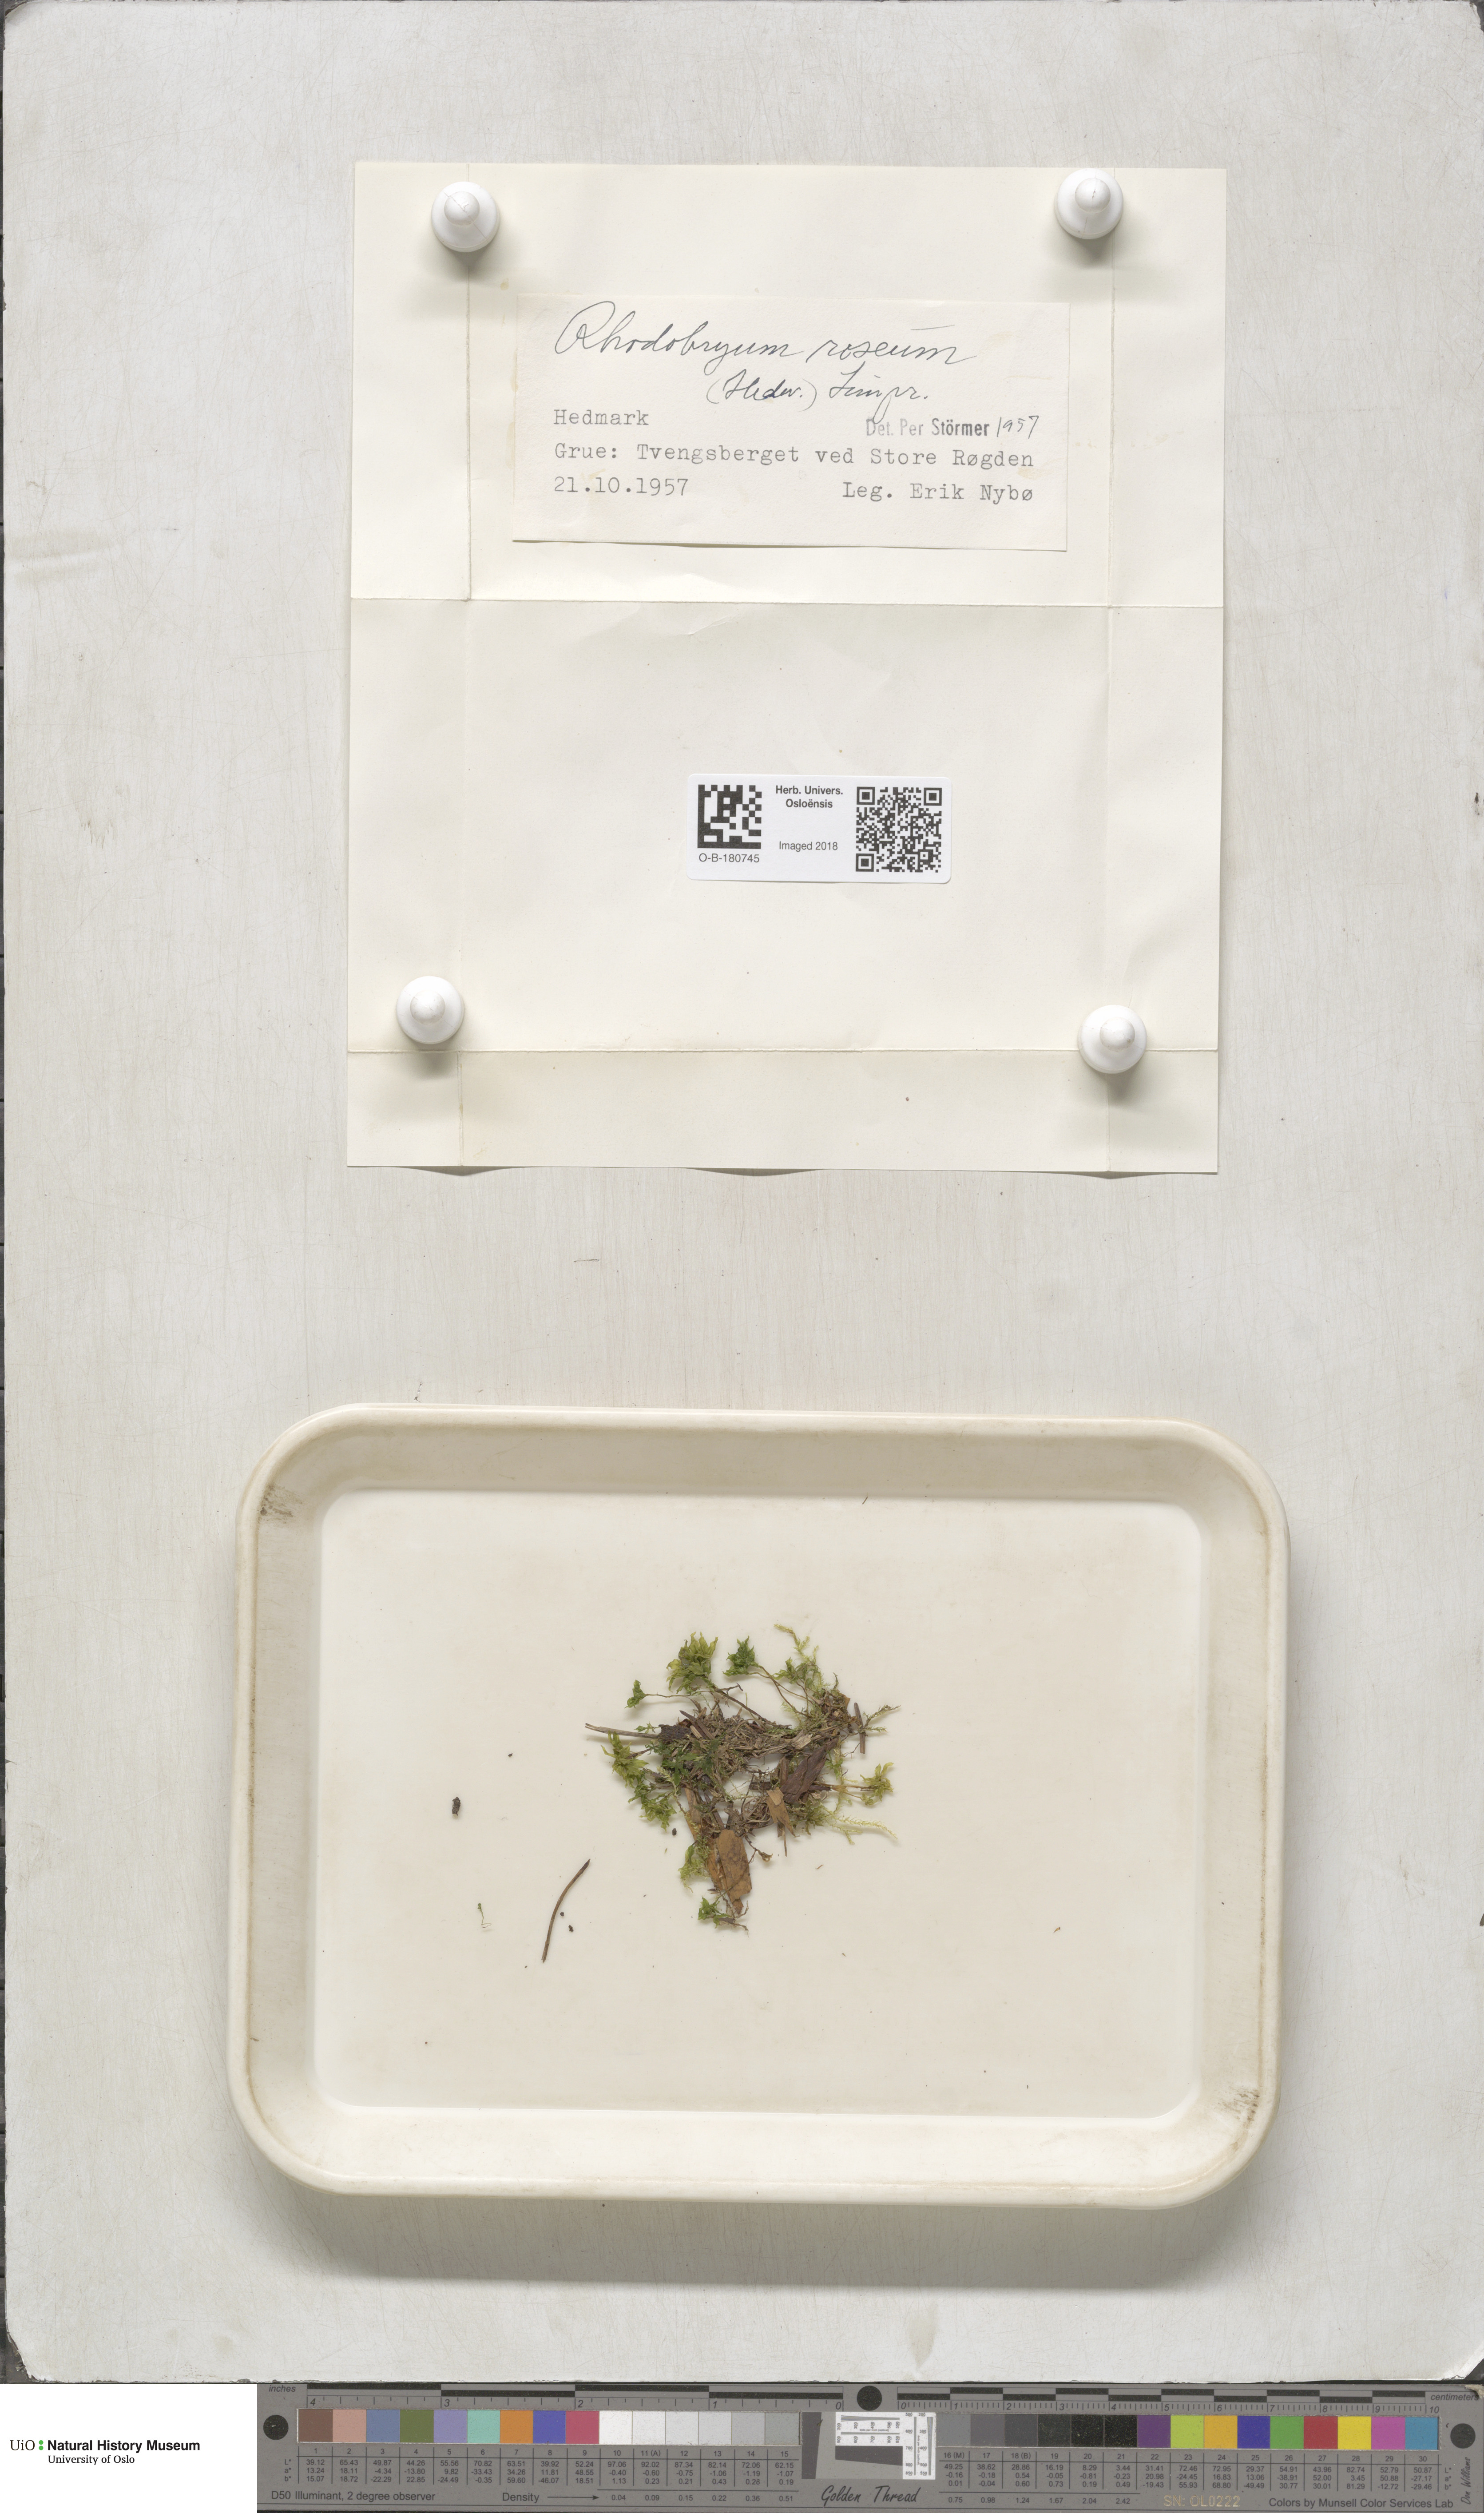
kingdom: Plantae
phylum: Bryophyta
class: Bryopsida
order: Bryales
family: Bryaceae
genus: Rhodobryum
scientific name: Rhodobryum roseum
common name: Rose-moss
